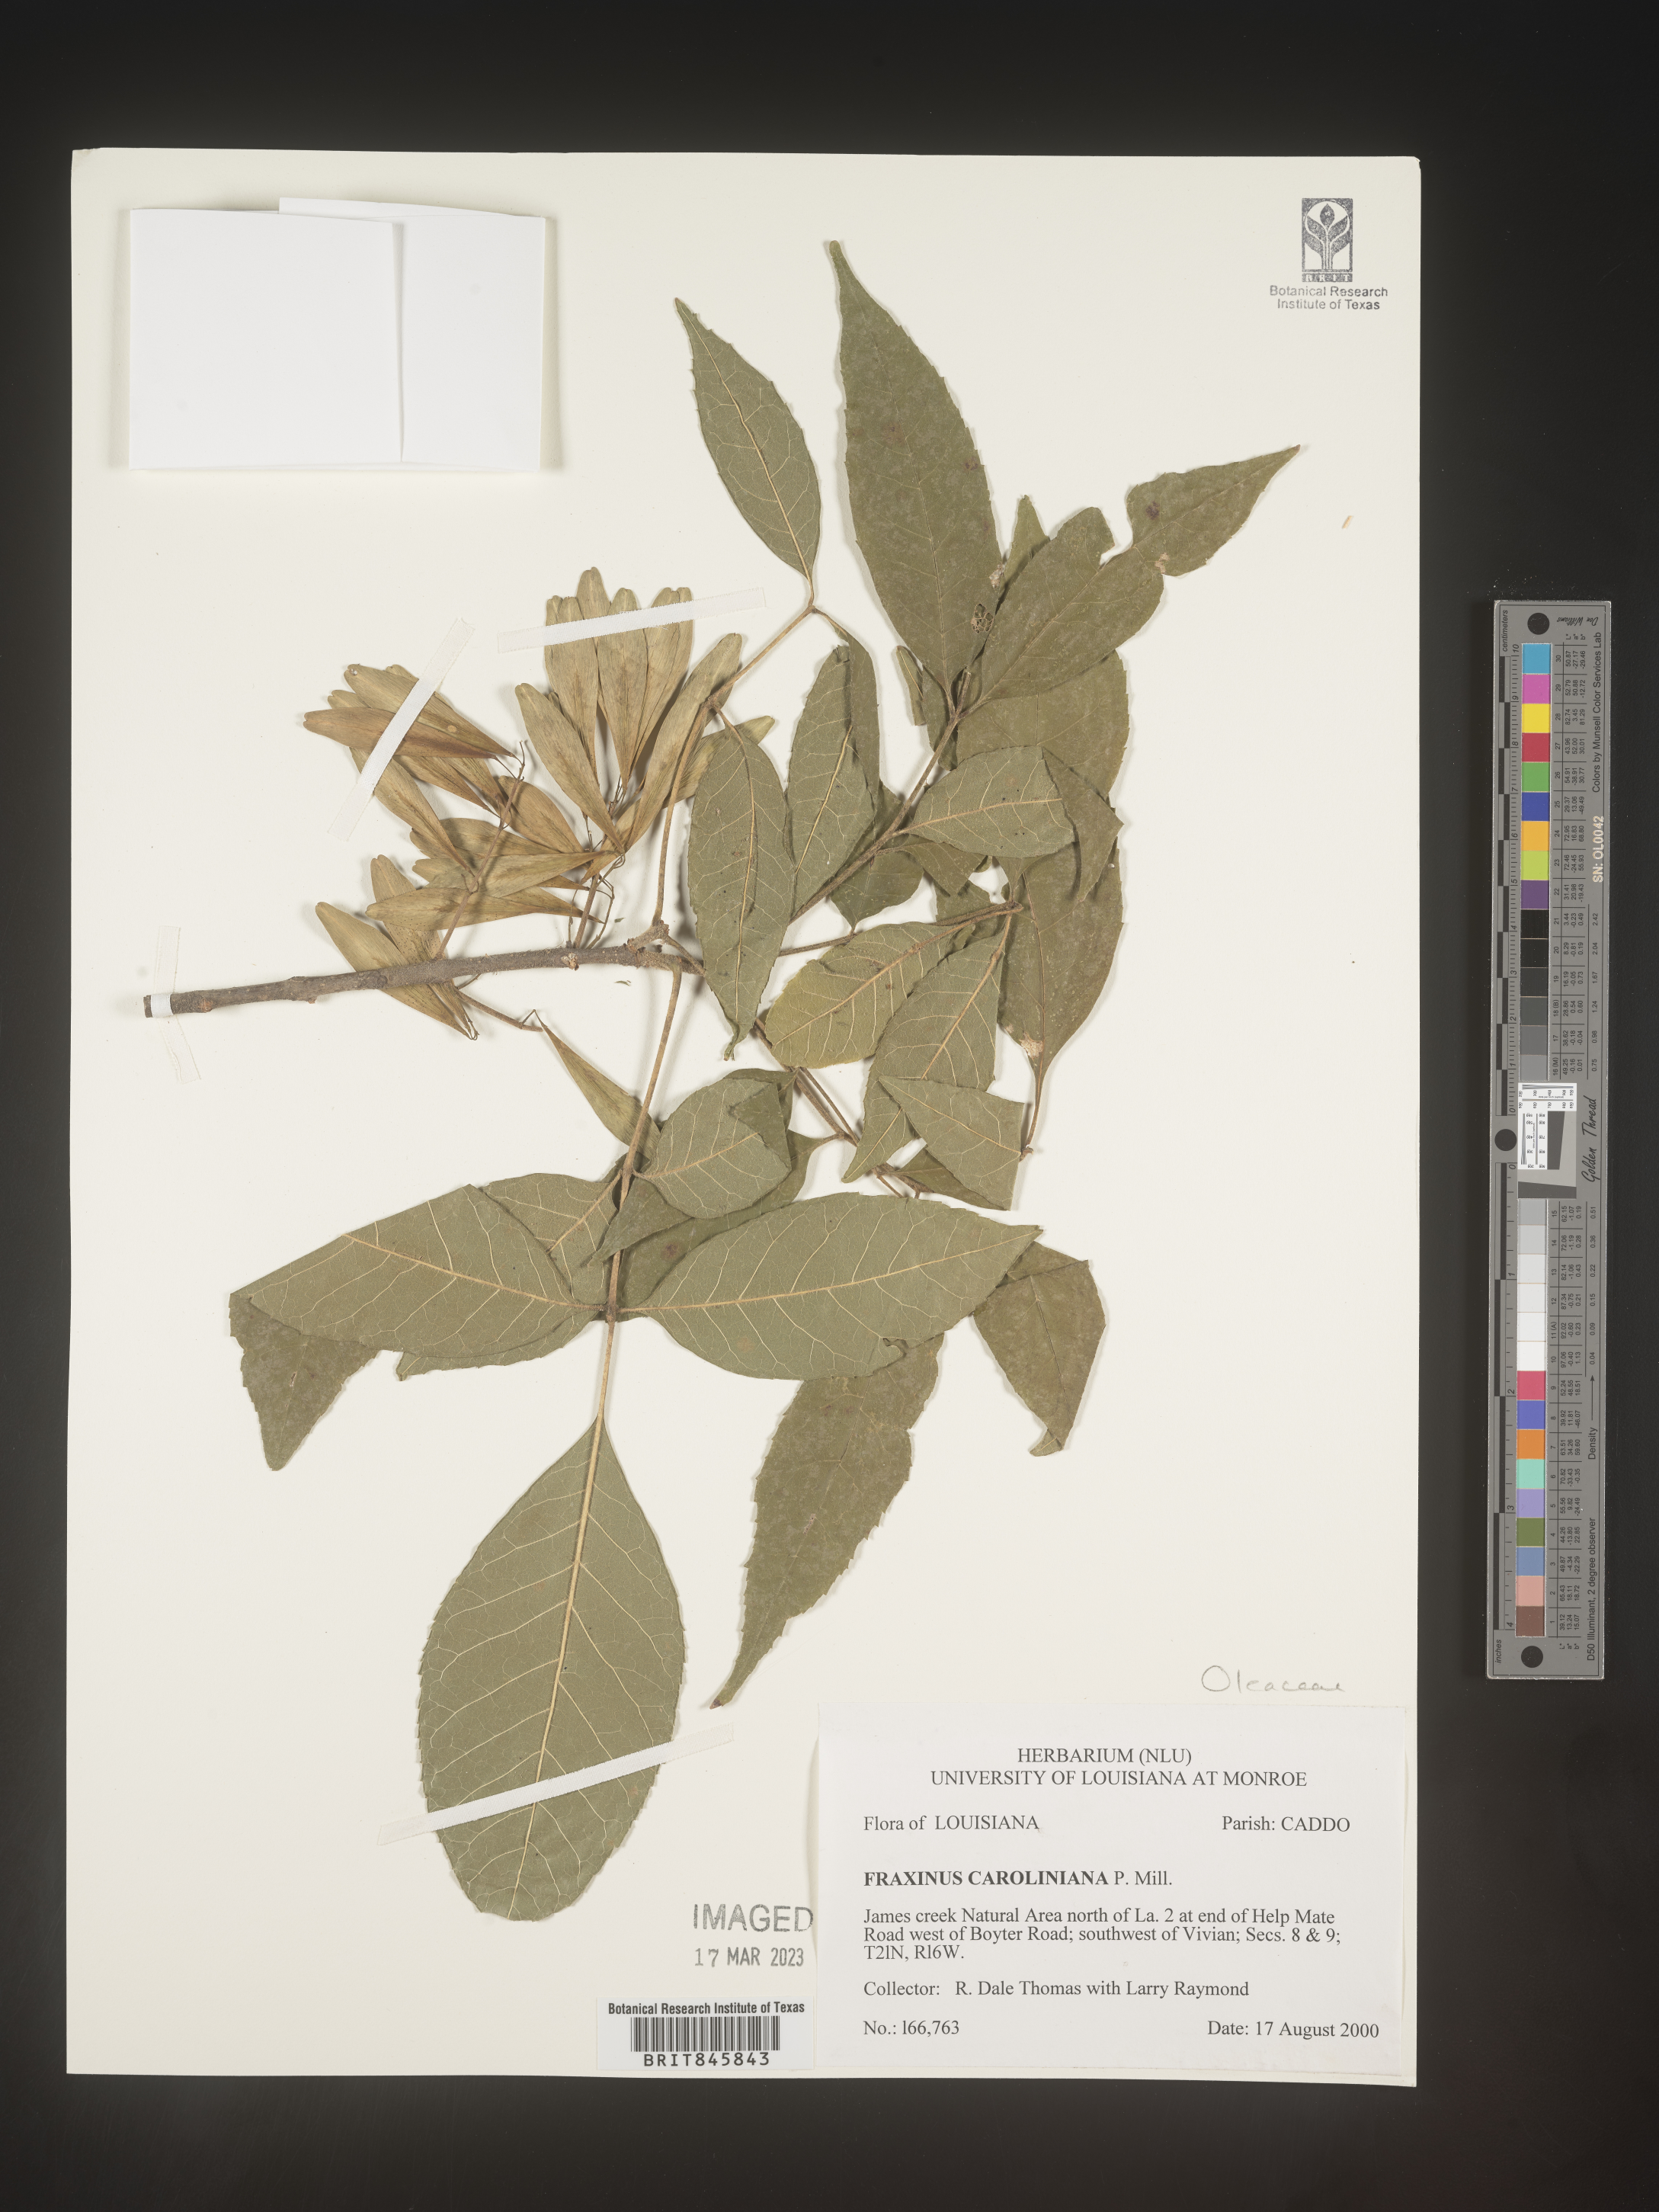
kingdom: Plantae
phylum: Tracheophyta
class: Magnoliopsida
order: Lamiales
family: Oleaceae
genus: Fraxinus
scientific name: Fraxinus caroliniana
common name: Carolina ash
